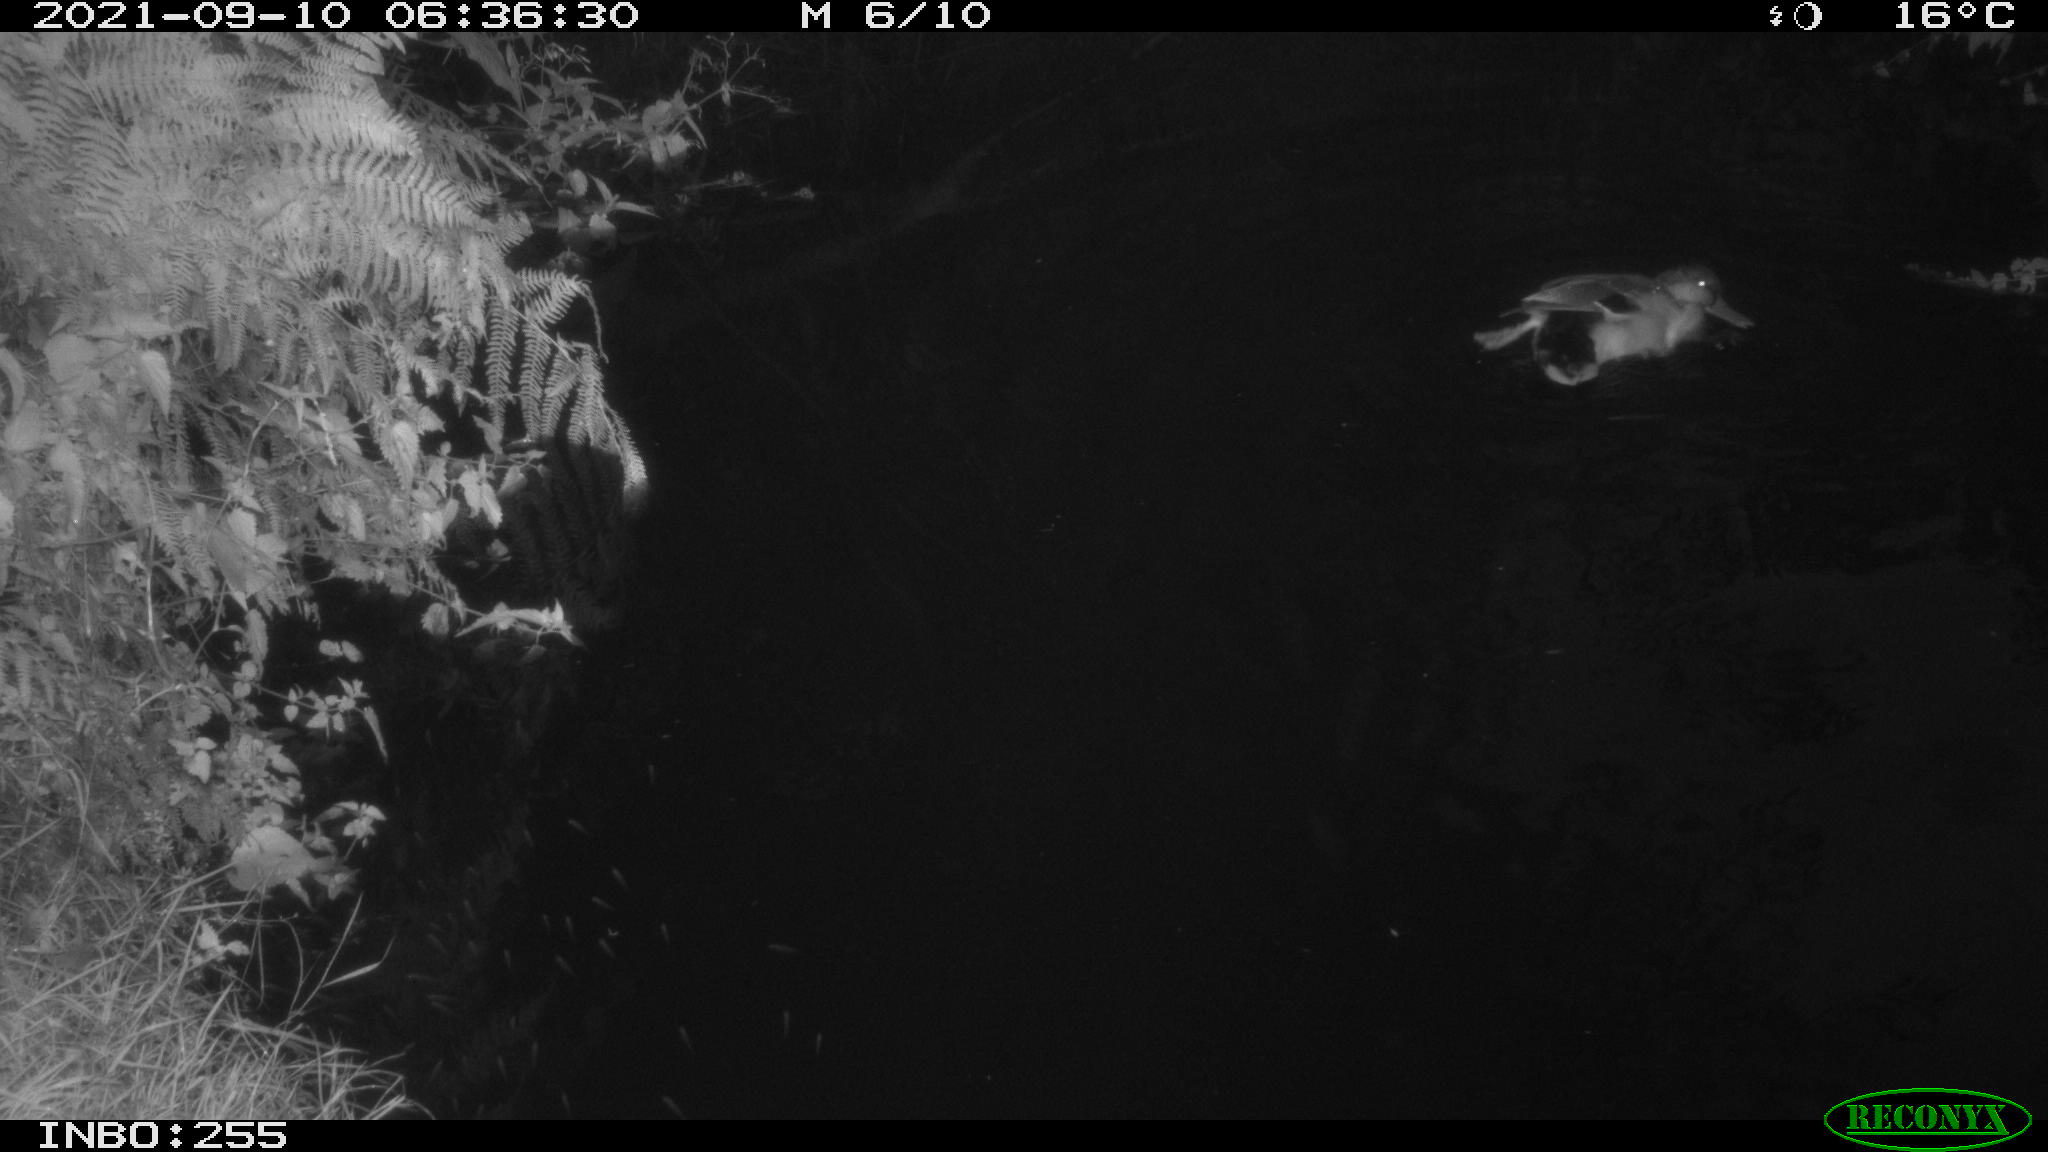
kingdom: Animalia
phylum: Chordata
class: Aves
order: Anseriformes
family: Anatidae
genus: Anas
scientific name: Anas platyrhynchos
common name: Mallard
